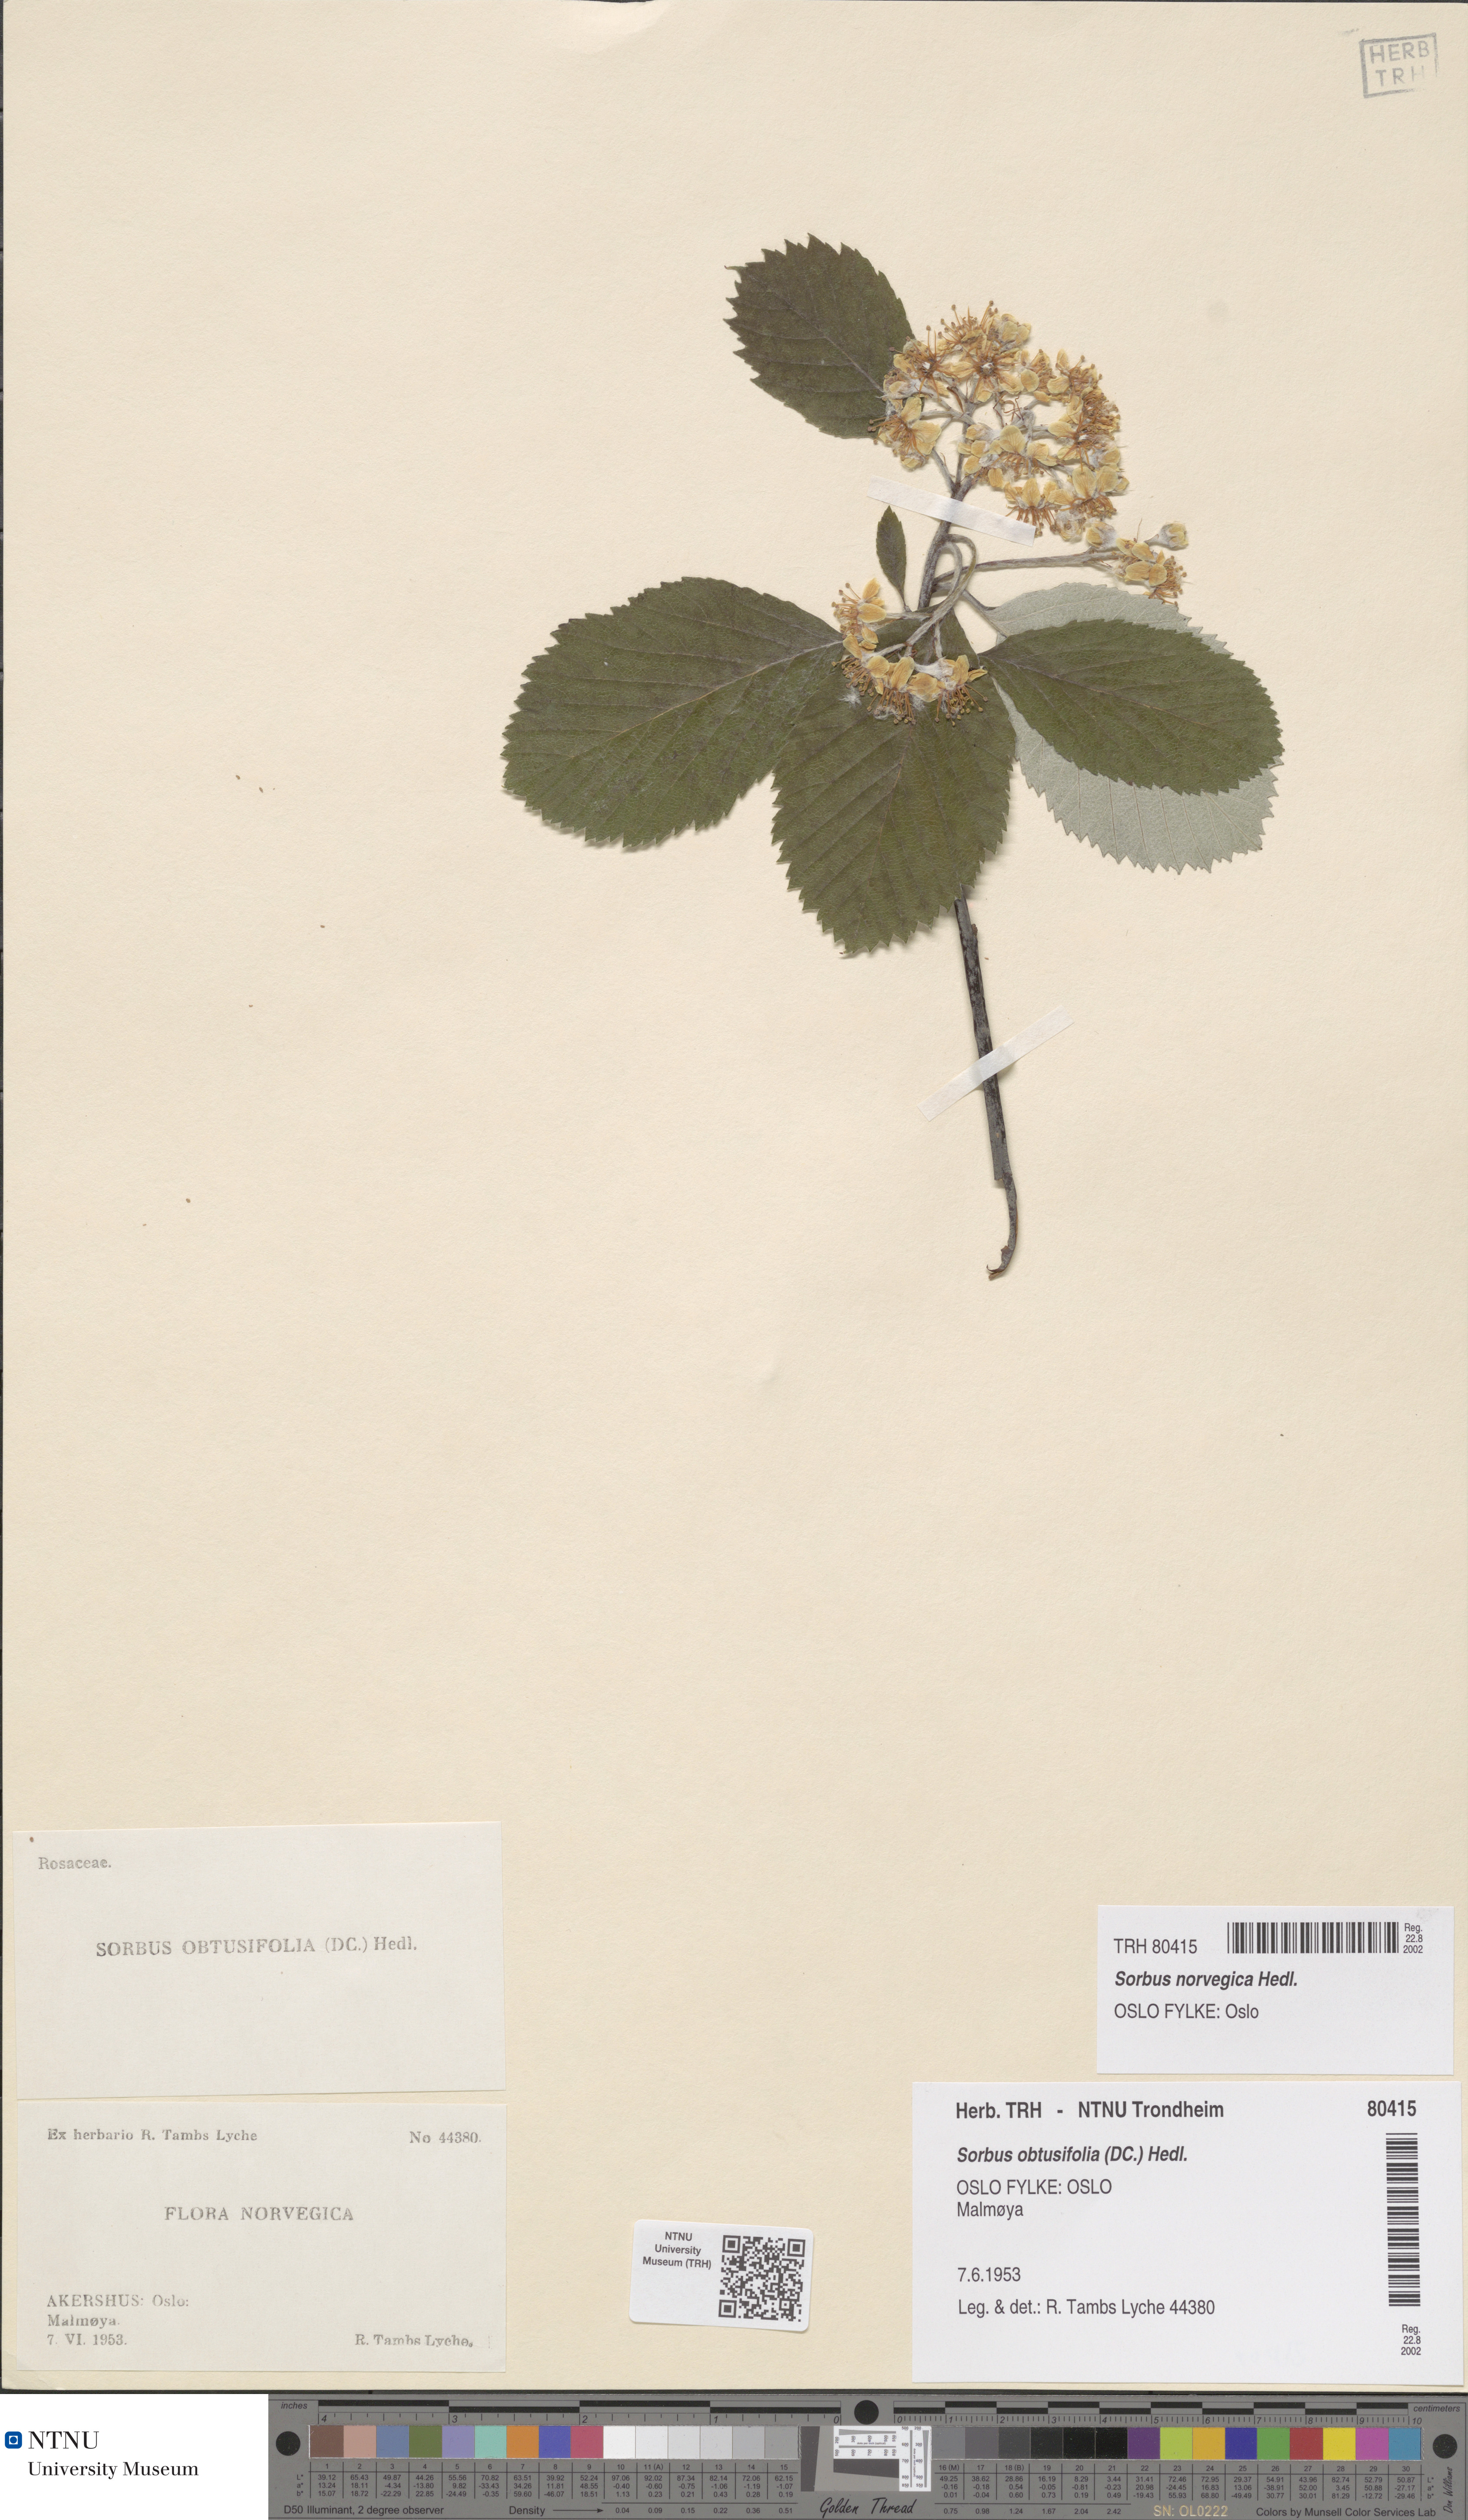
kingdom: Plantae
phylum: Tracheophyta
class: Magnoliopsida
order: Rosales
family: Rosaceae
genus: Aria
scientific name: Aria obtusifolia
